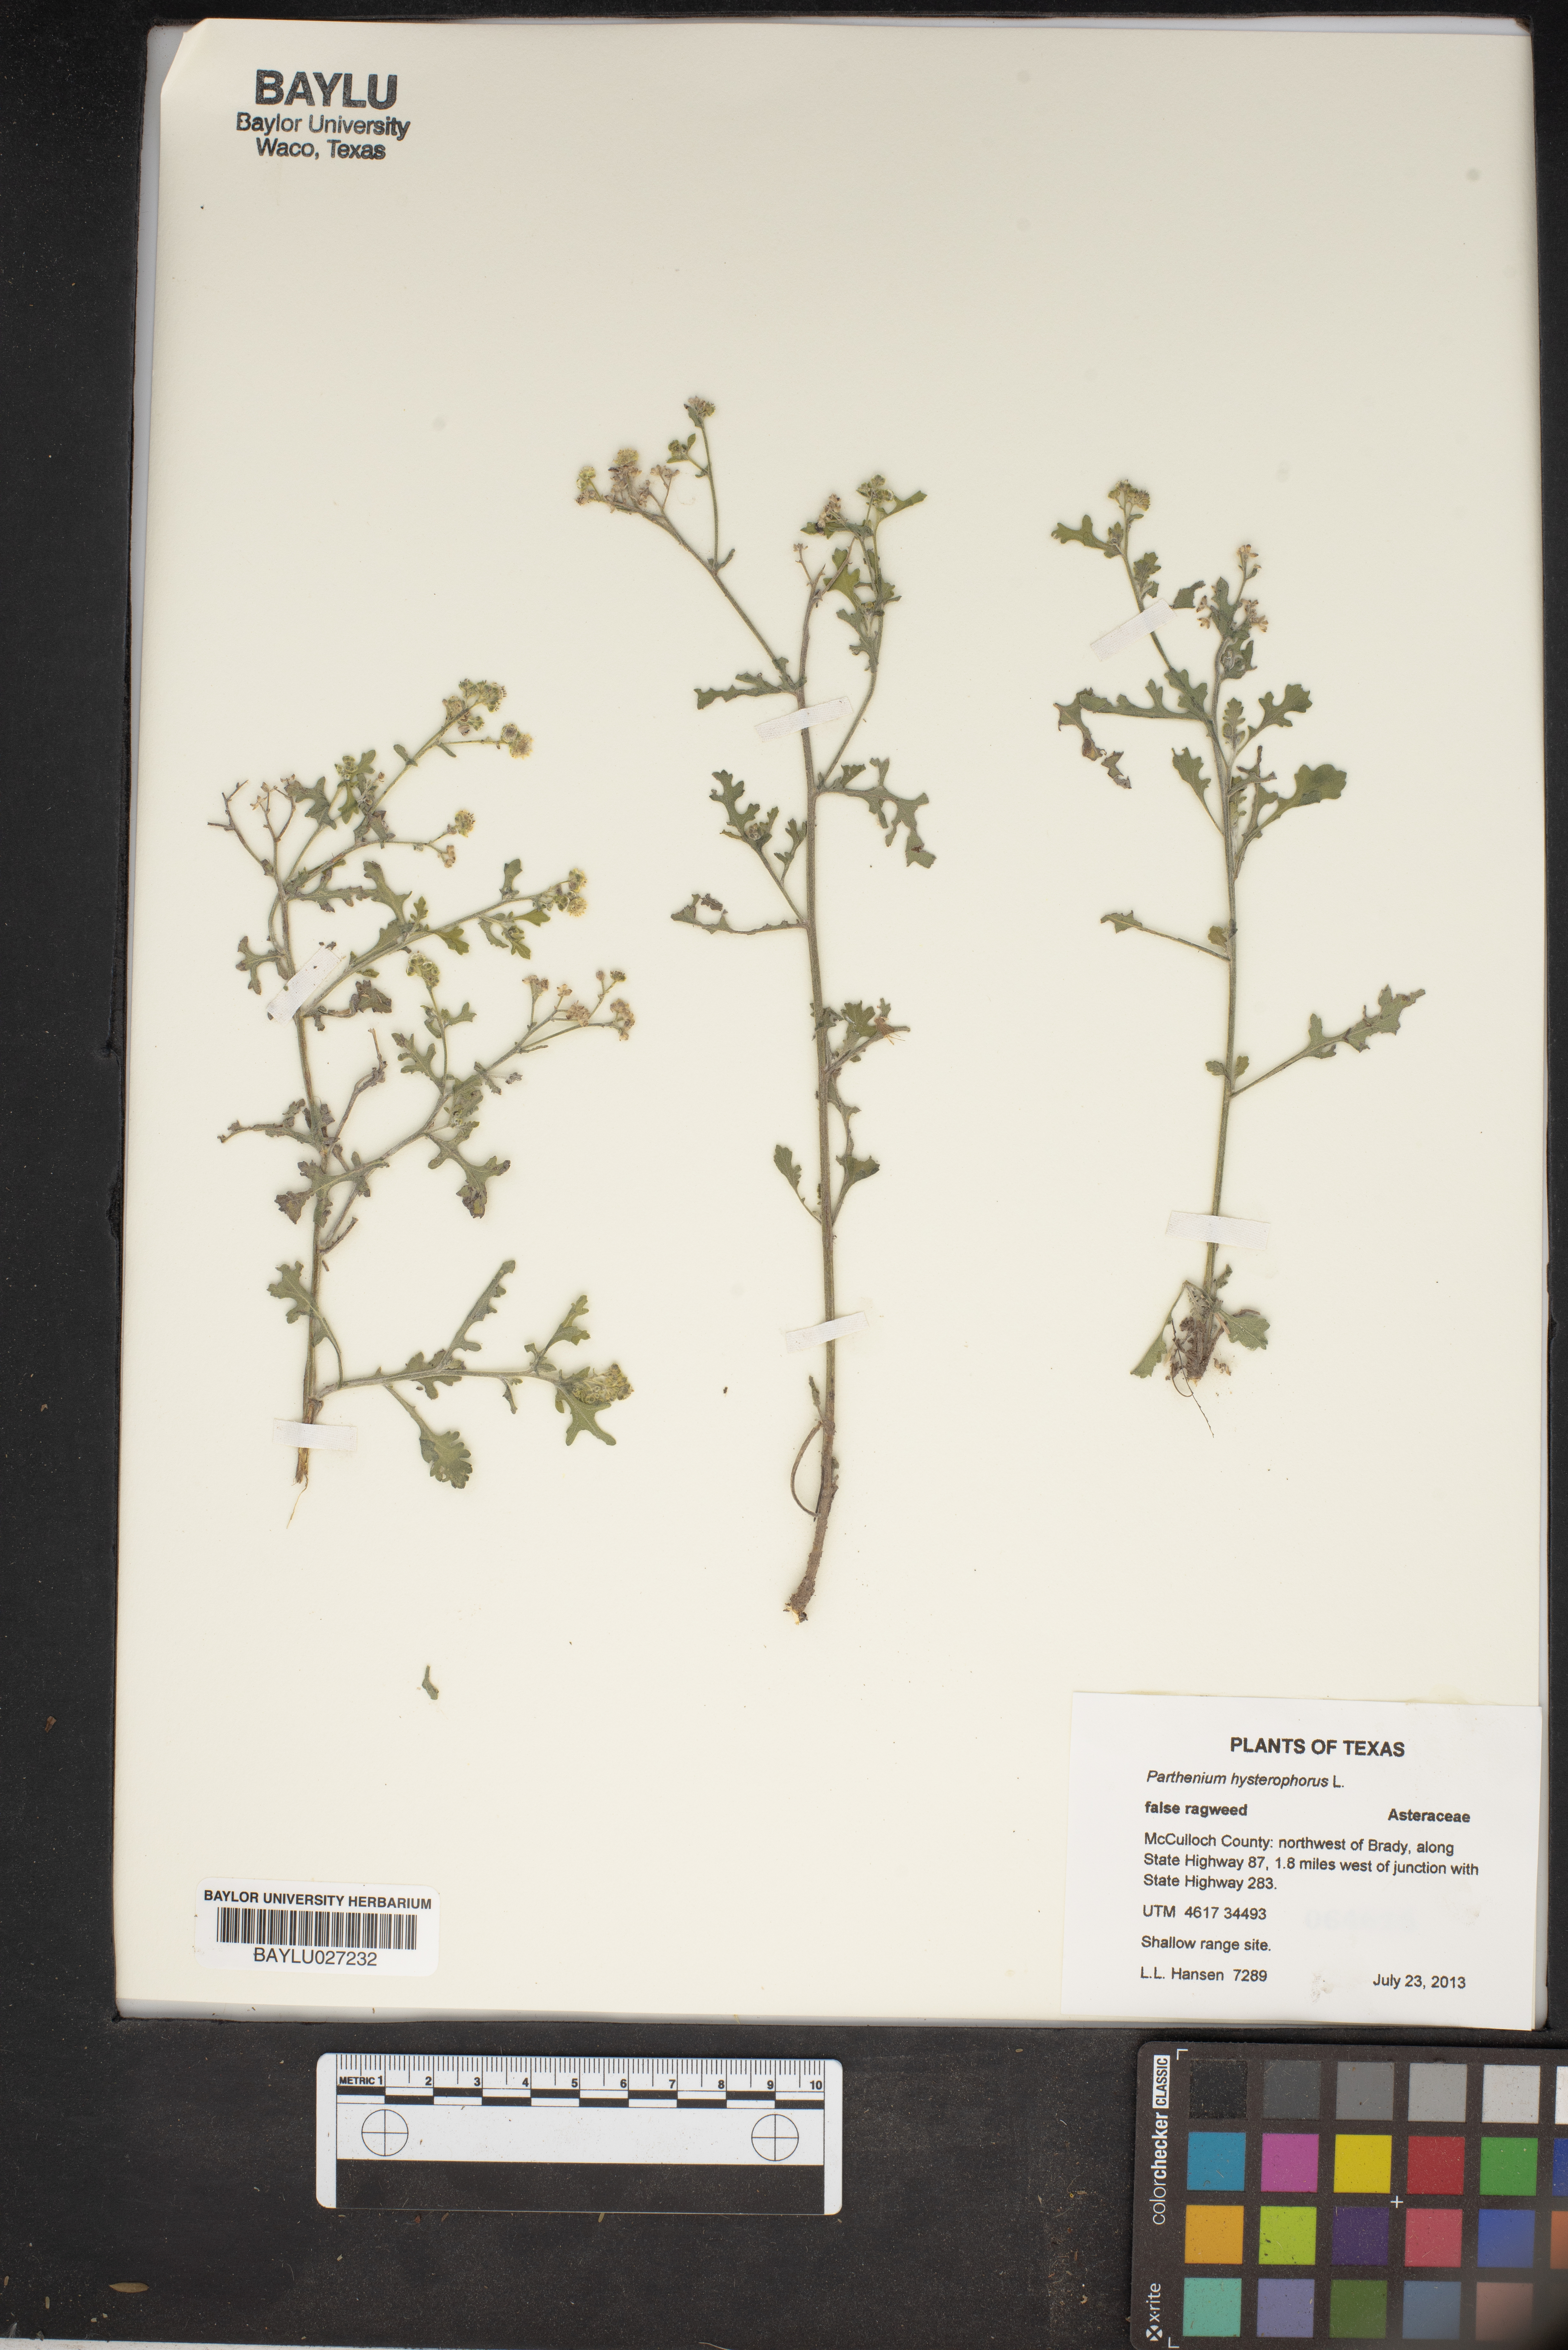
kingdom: Plantae
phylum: Tracheophyta
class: Magnoliopsida
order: Asterales
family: Asteraceae
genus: Parthenium
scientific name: Parthenium hysterophorus
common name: Santa maria feverfew
